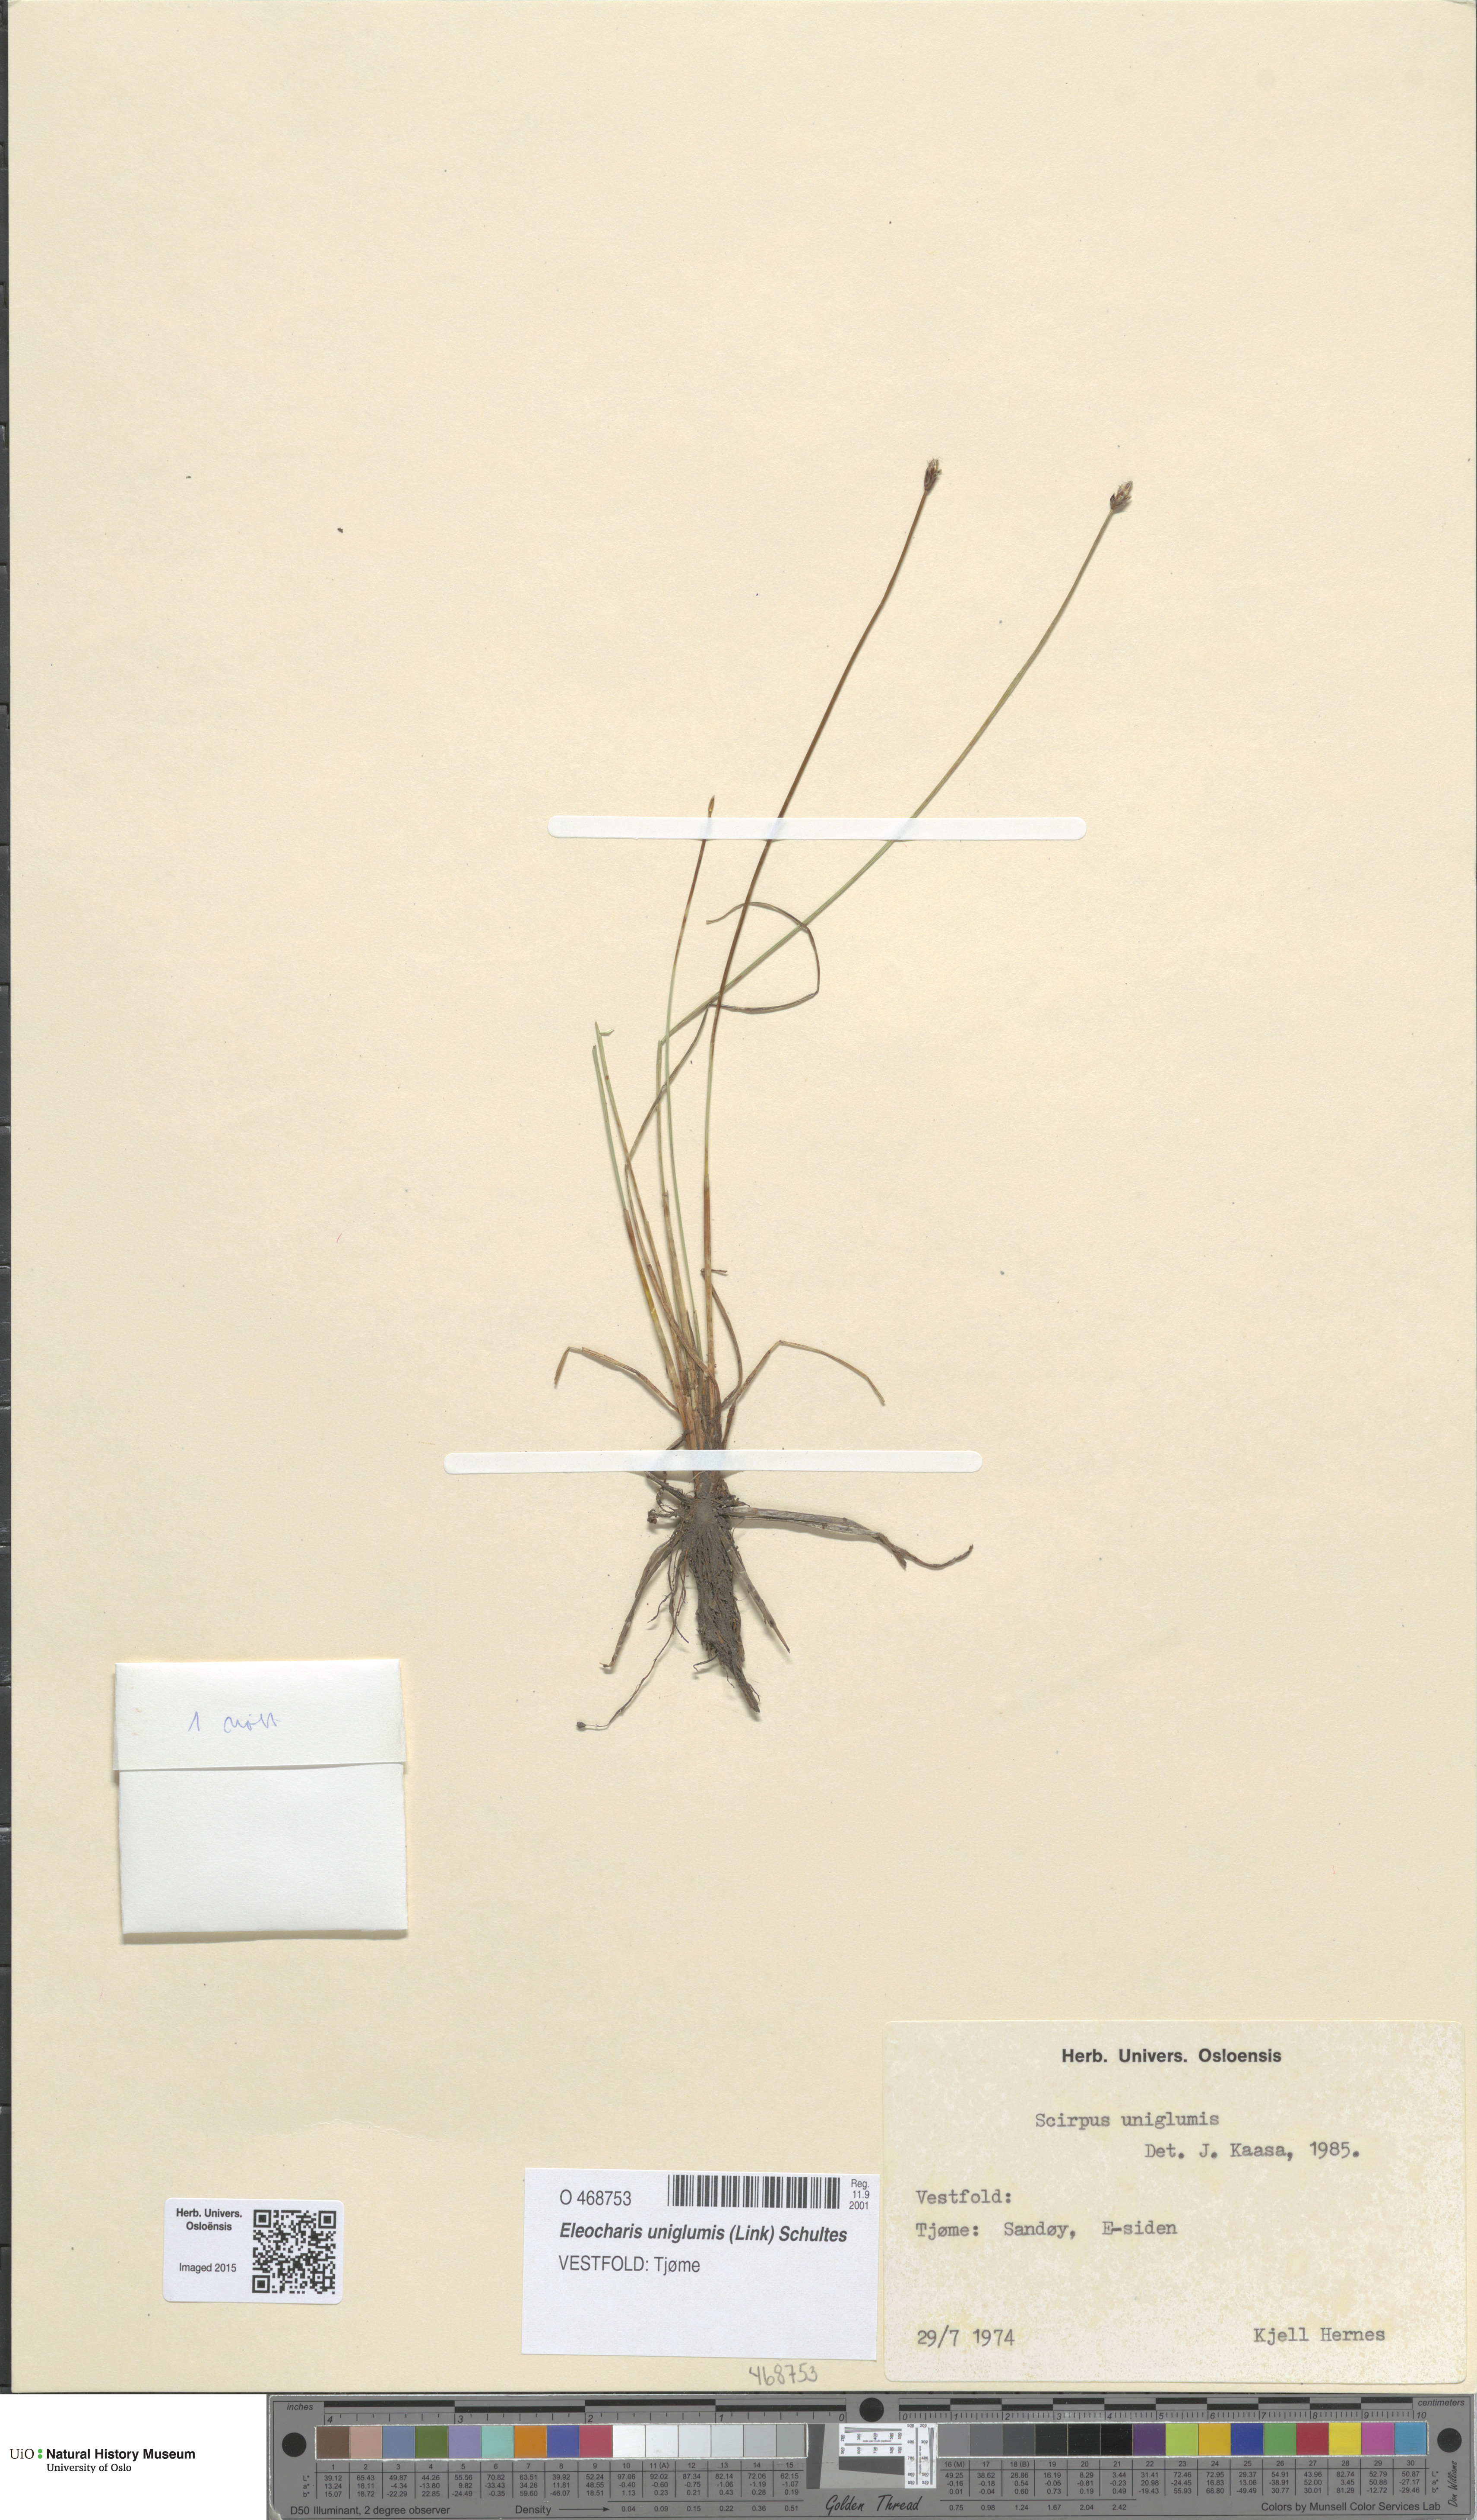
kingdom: Plantae
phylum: Tracheophyta
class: Liliopsida
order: Poales
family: Cyperaceae
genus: Eleocharis
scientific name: Eleocharis uniglumis
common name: Slender spike-rush
